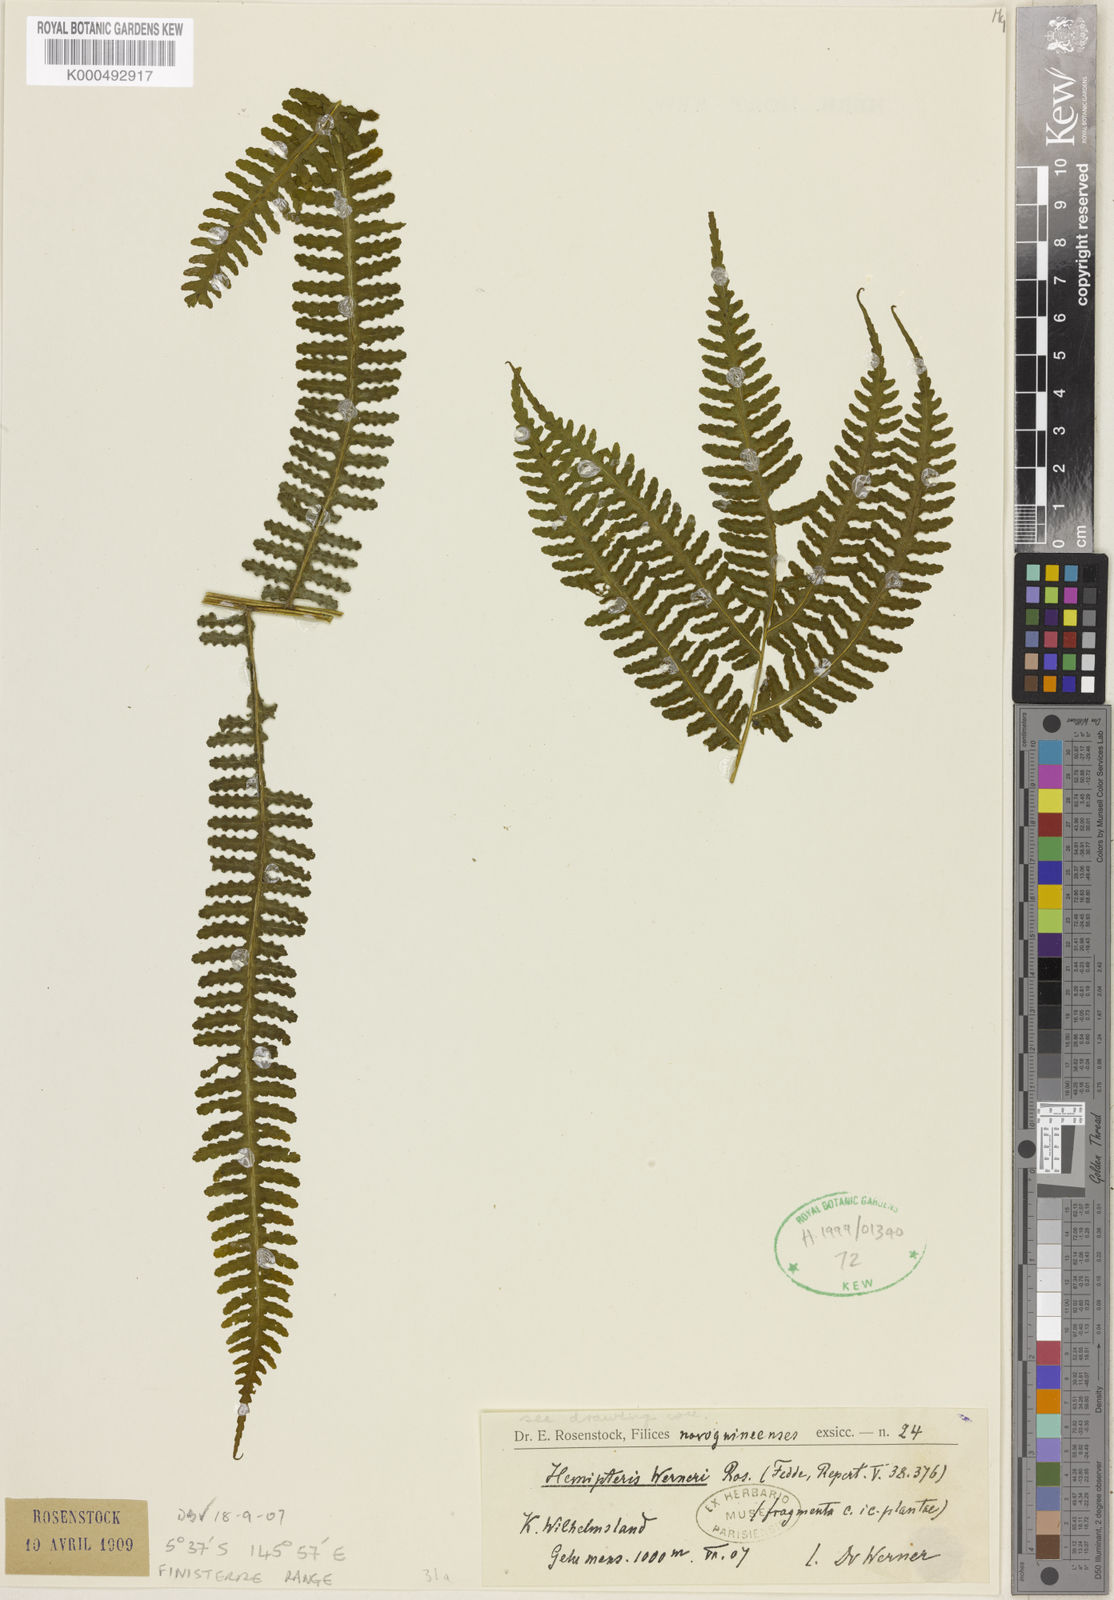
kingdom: Plantae
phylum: Tracheophyta
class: Polypodiopsida
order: Polypodiales
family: Pteridaceae
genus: Pteris
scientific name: Pteris werneri
